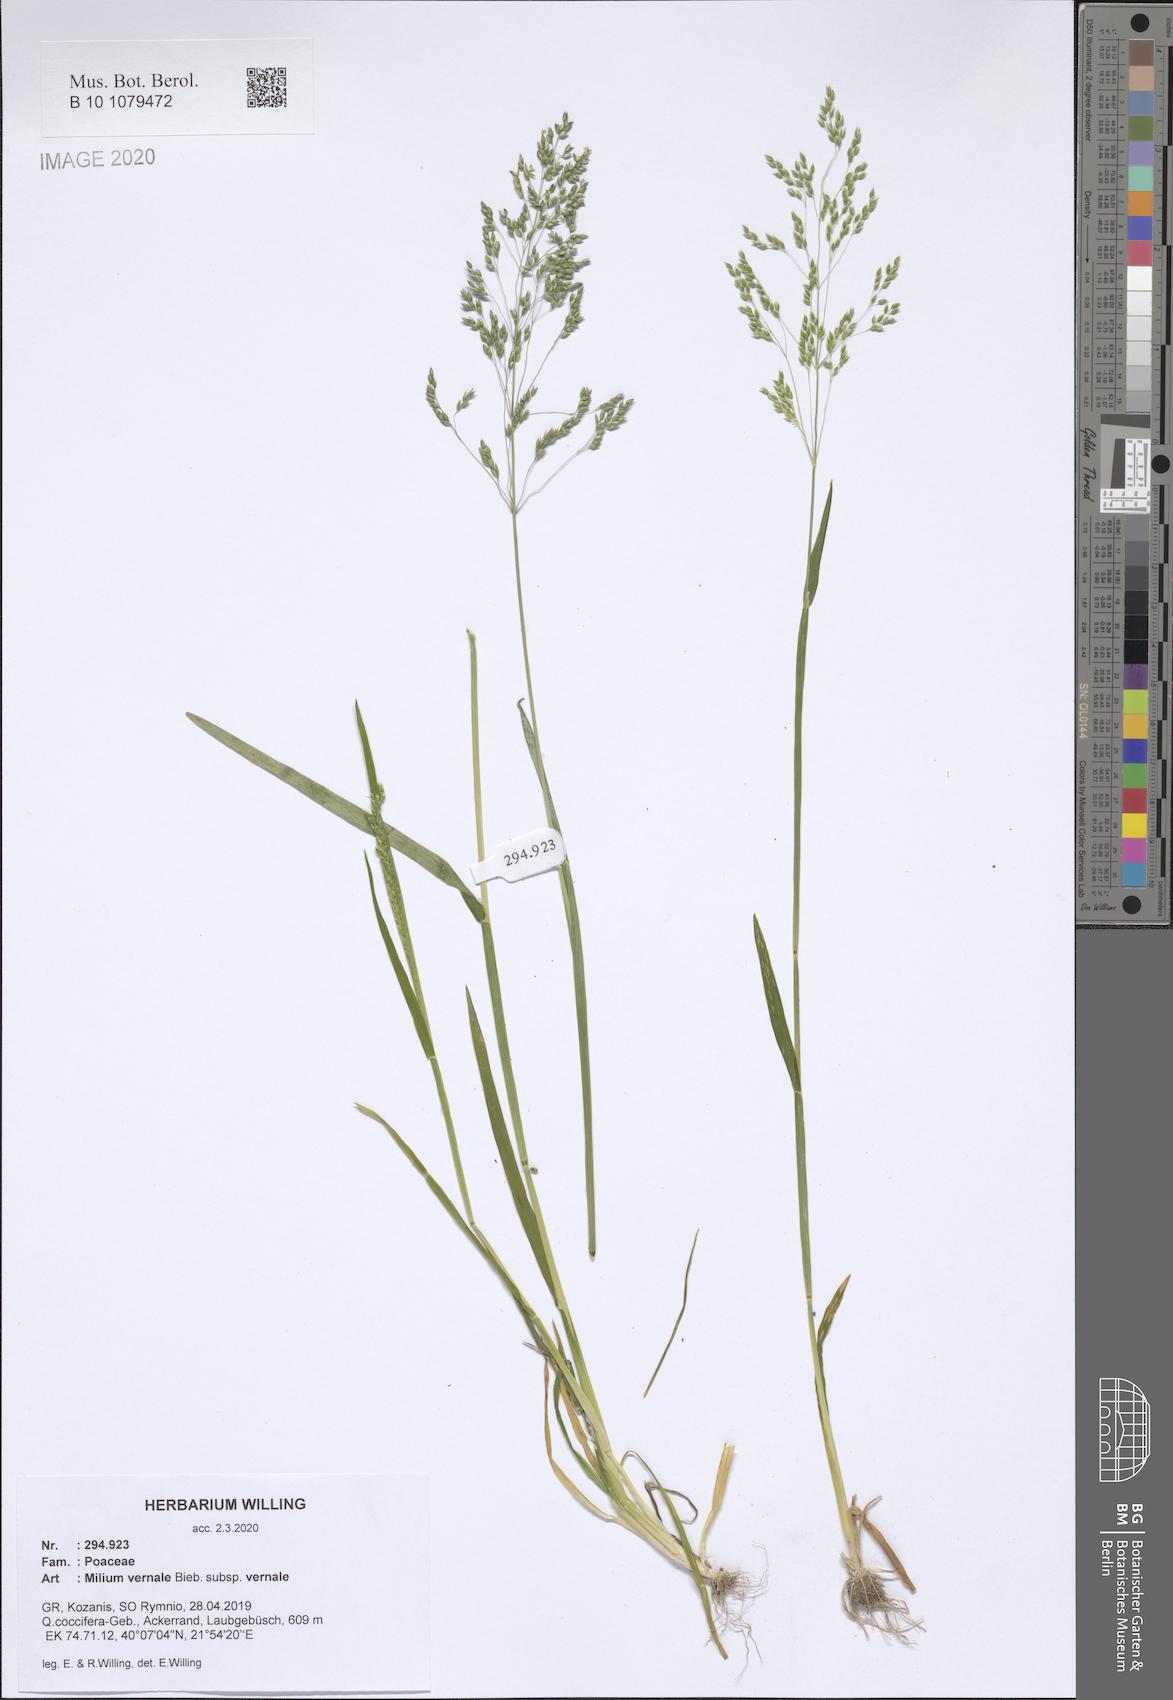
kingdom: Plantae
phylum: Tracheophyta
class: Liliopsida
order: Poales
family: Poaceae
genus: Milium
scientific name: Milium vernale
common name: Early millet
